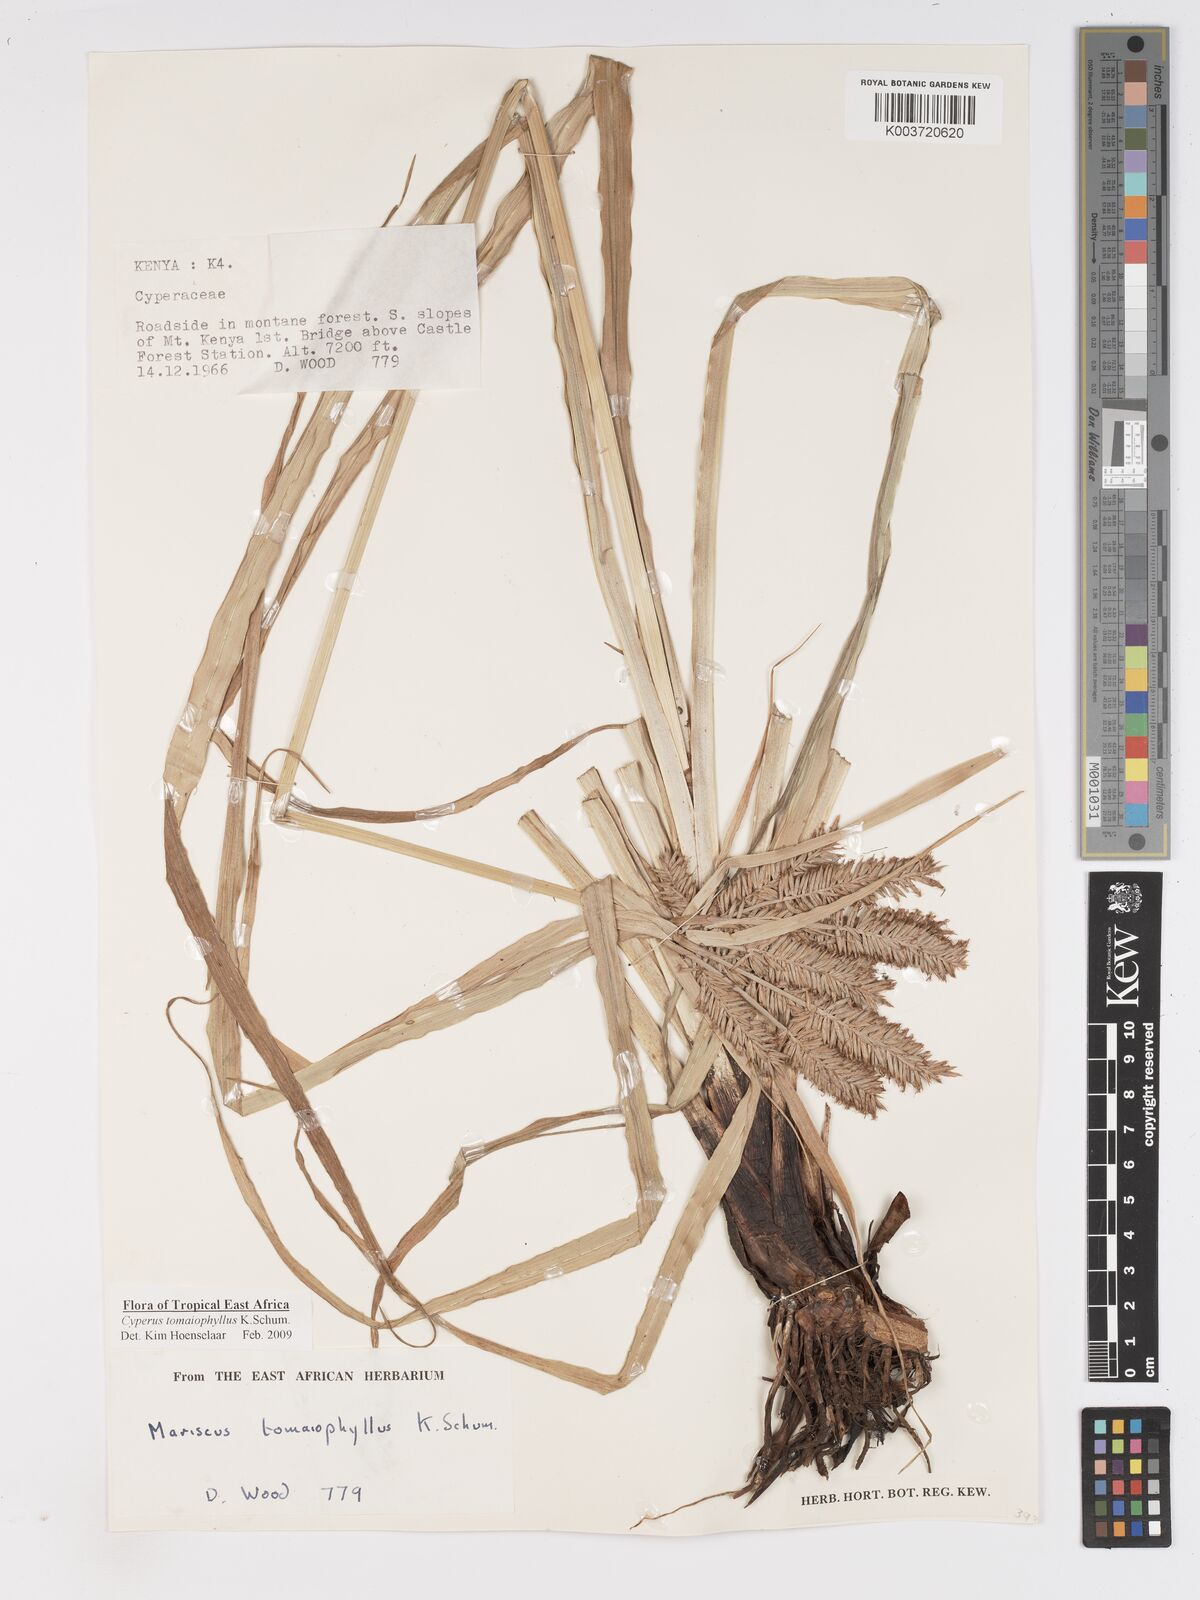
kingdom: Plantae
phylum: Tracheophyta
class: Liliopsida
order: Poales
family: Cyperaceae
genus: Cyperus
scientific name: Cyperus tomaiophyllus
